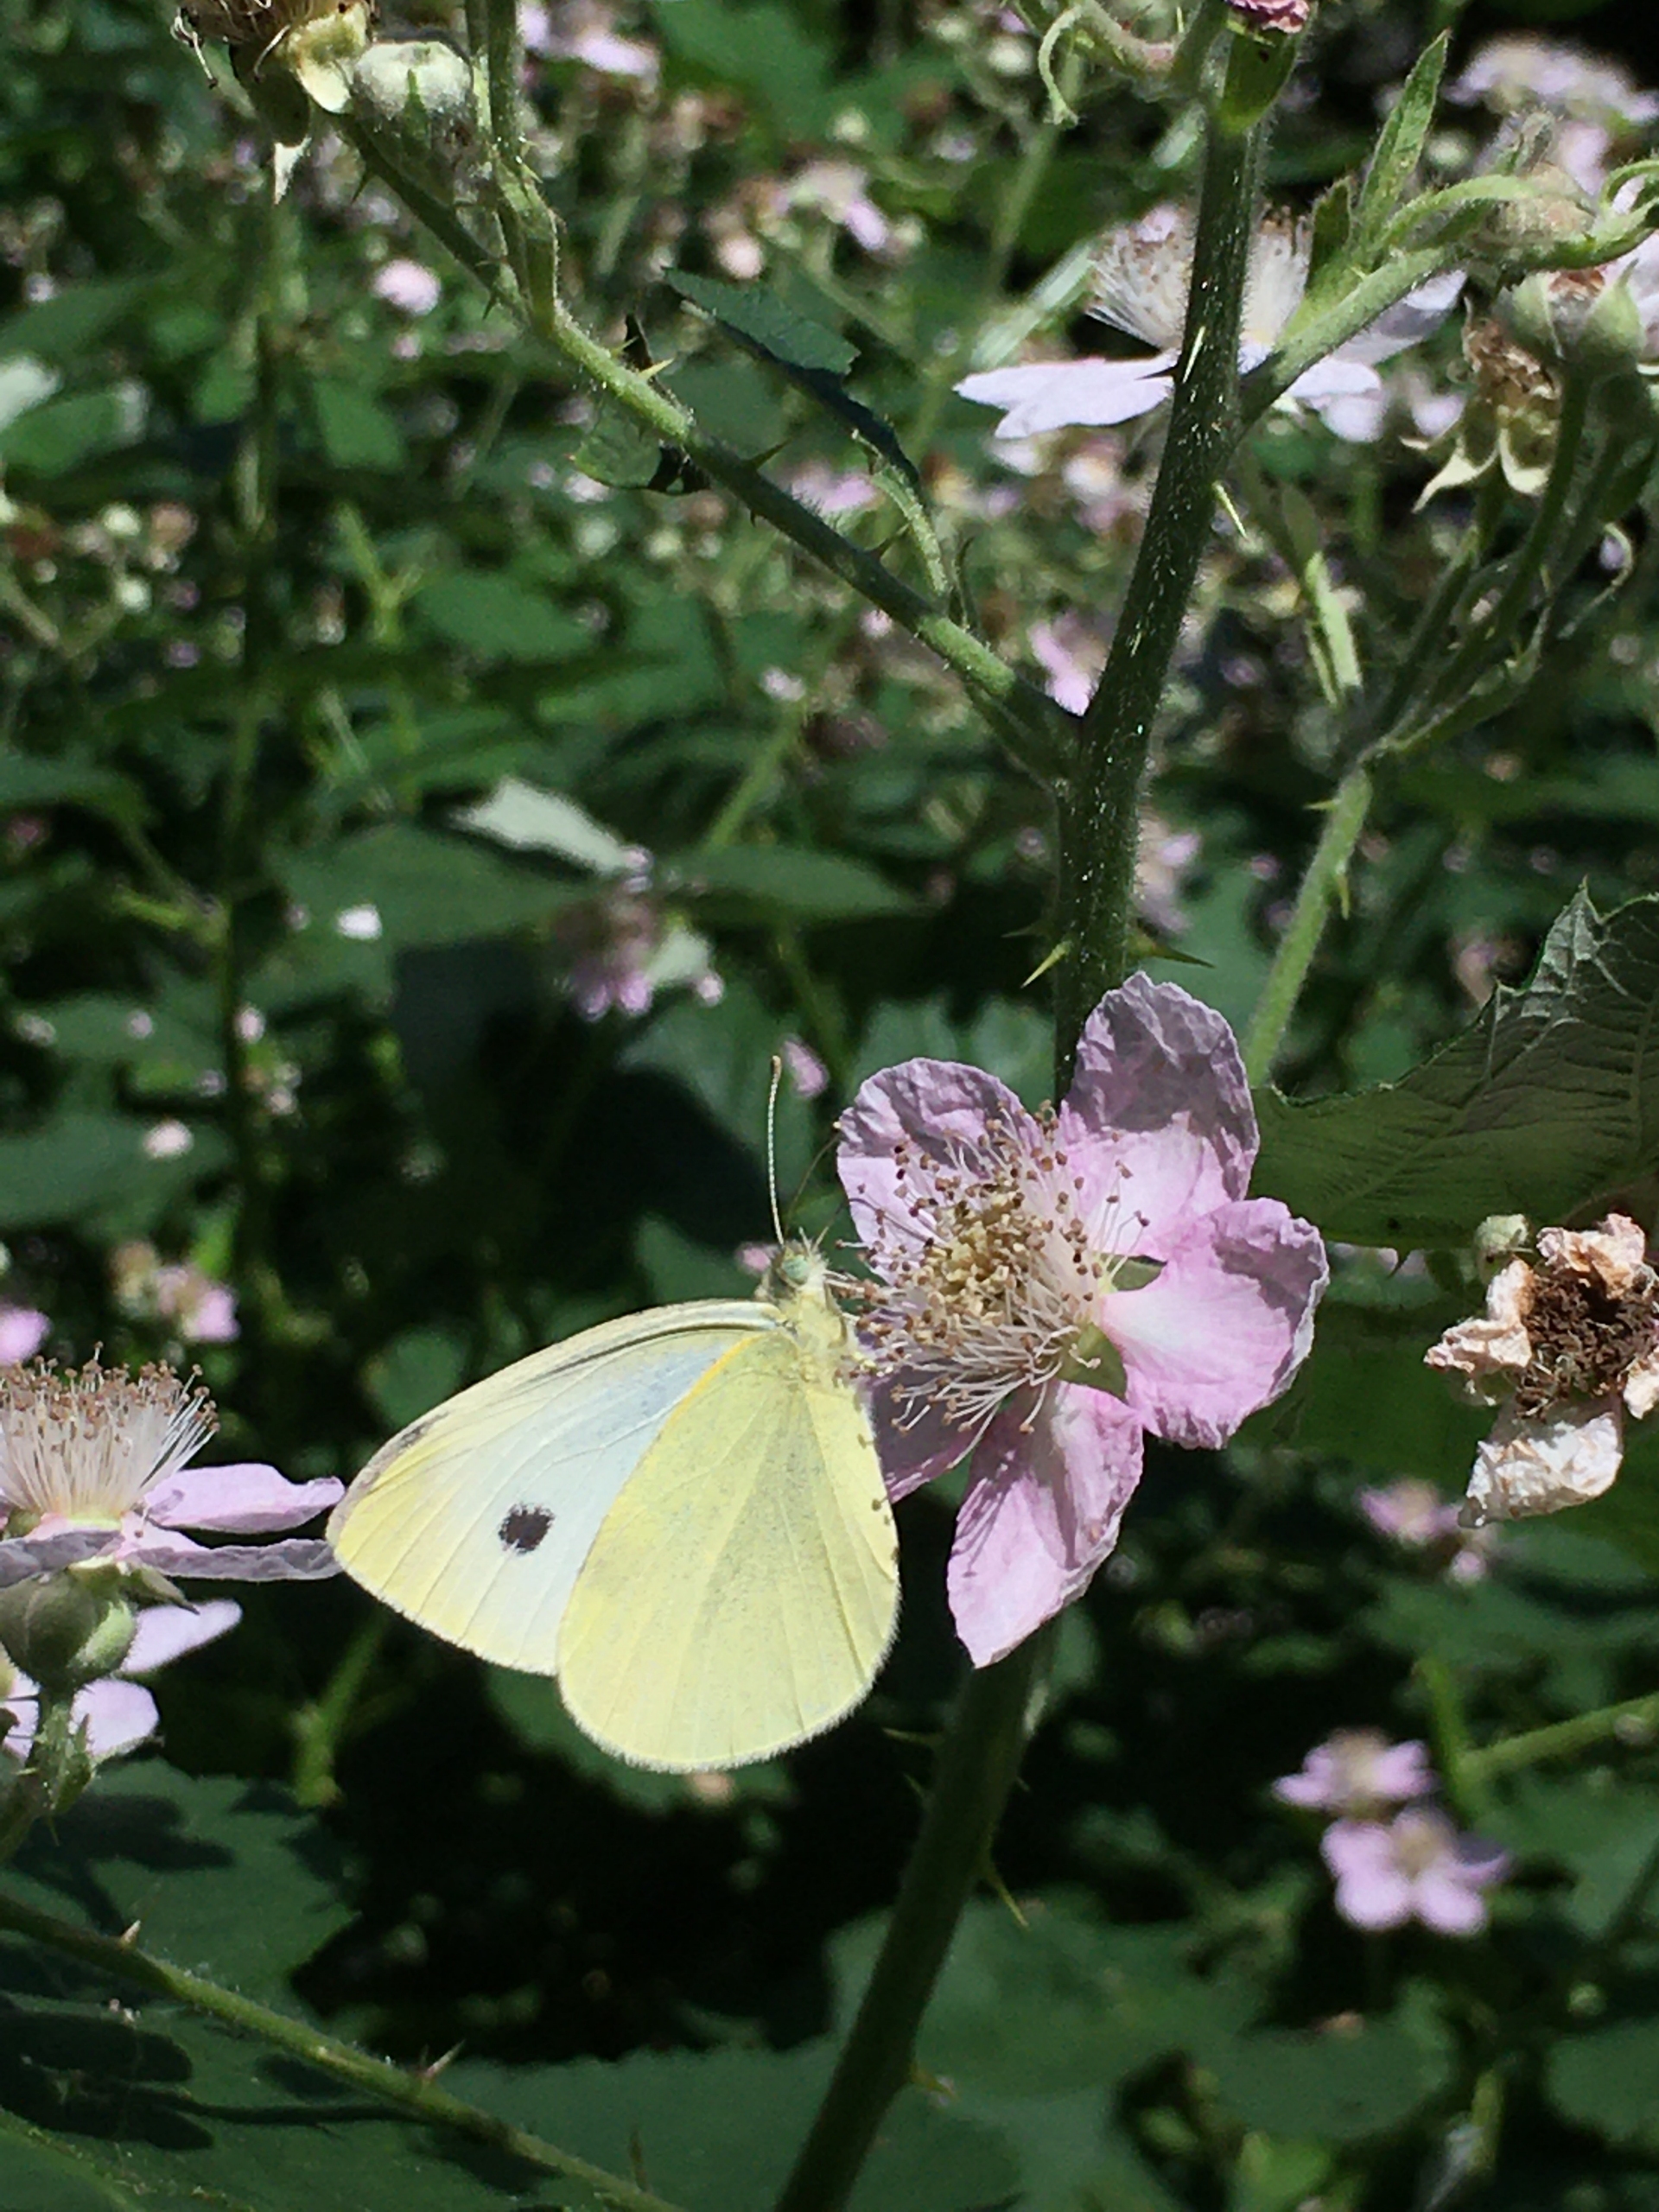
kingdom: Animalia
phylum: Arthropoda
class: Insecta
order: Lepidoptera
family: Pieridae
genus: Pieris
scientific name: Pieris brassicae
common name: Stor kålsommerfugl
